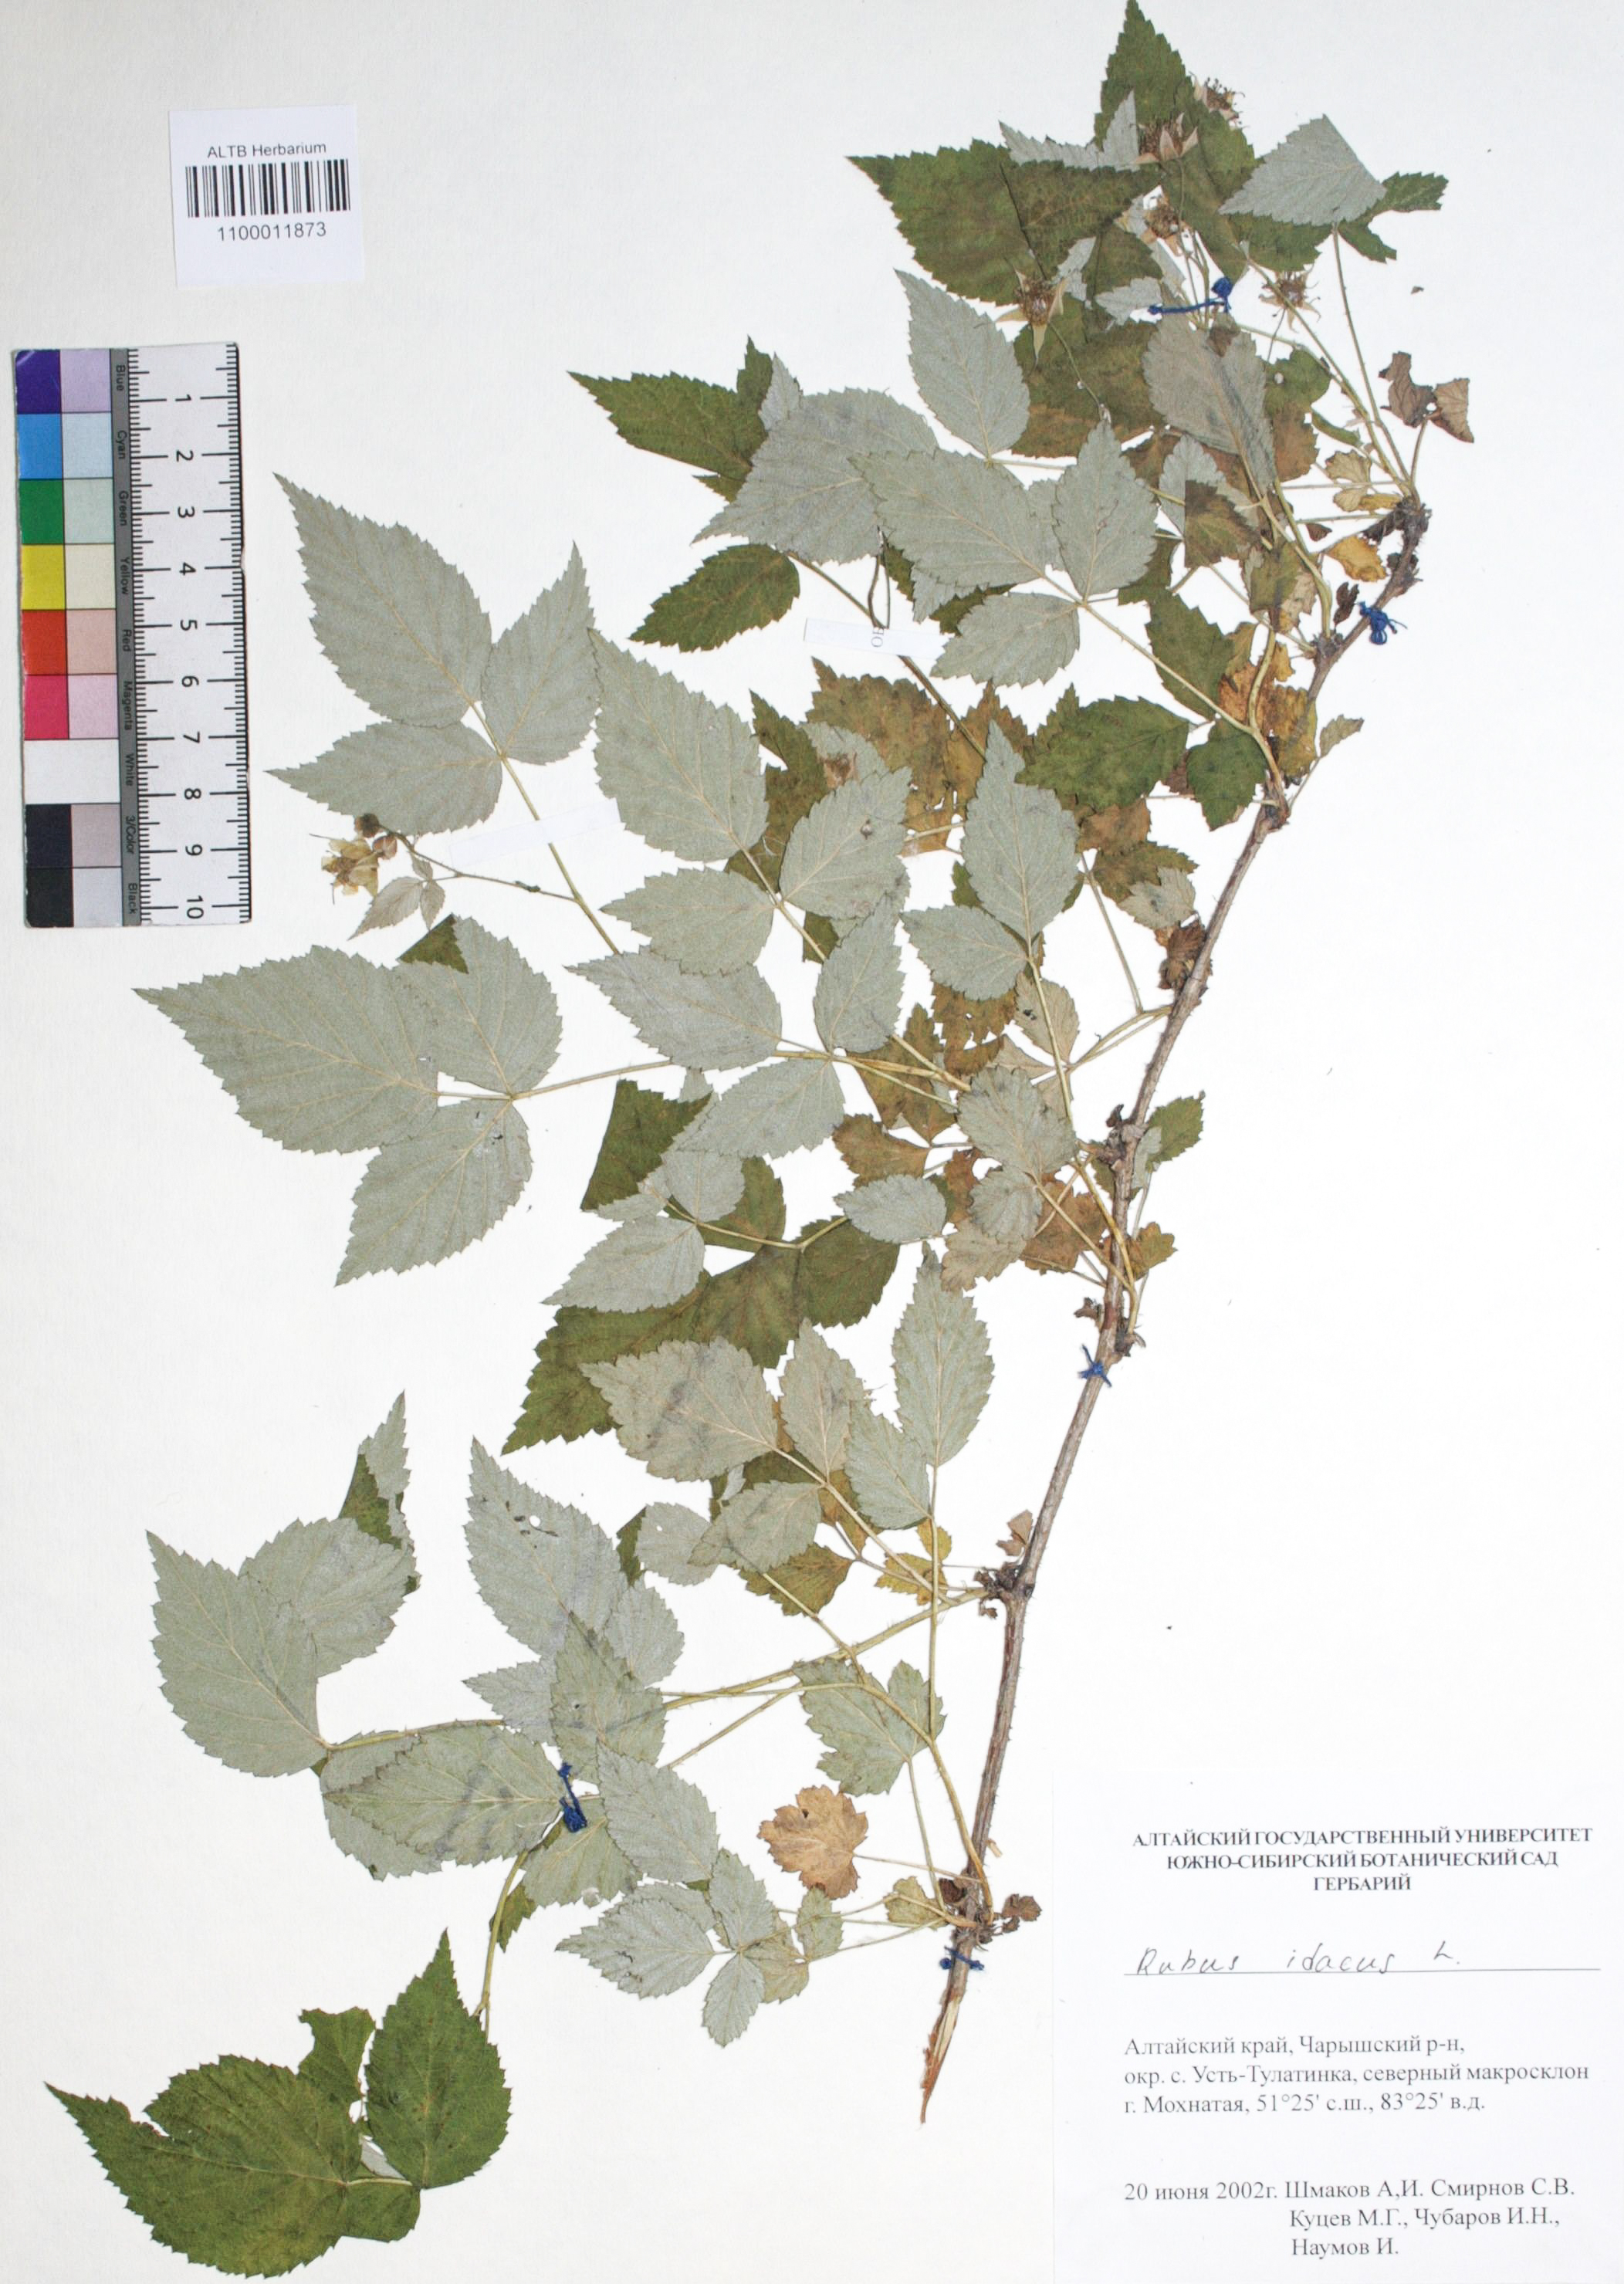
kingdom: Plantae
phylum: Tracheophyta
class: Magnoliopsida
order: Rosales
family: Rosaceae
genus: Rubus
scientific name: Rubus idaeus
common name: Raspberry
